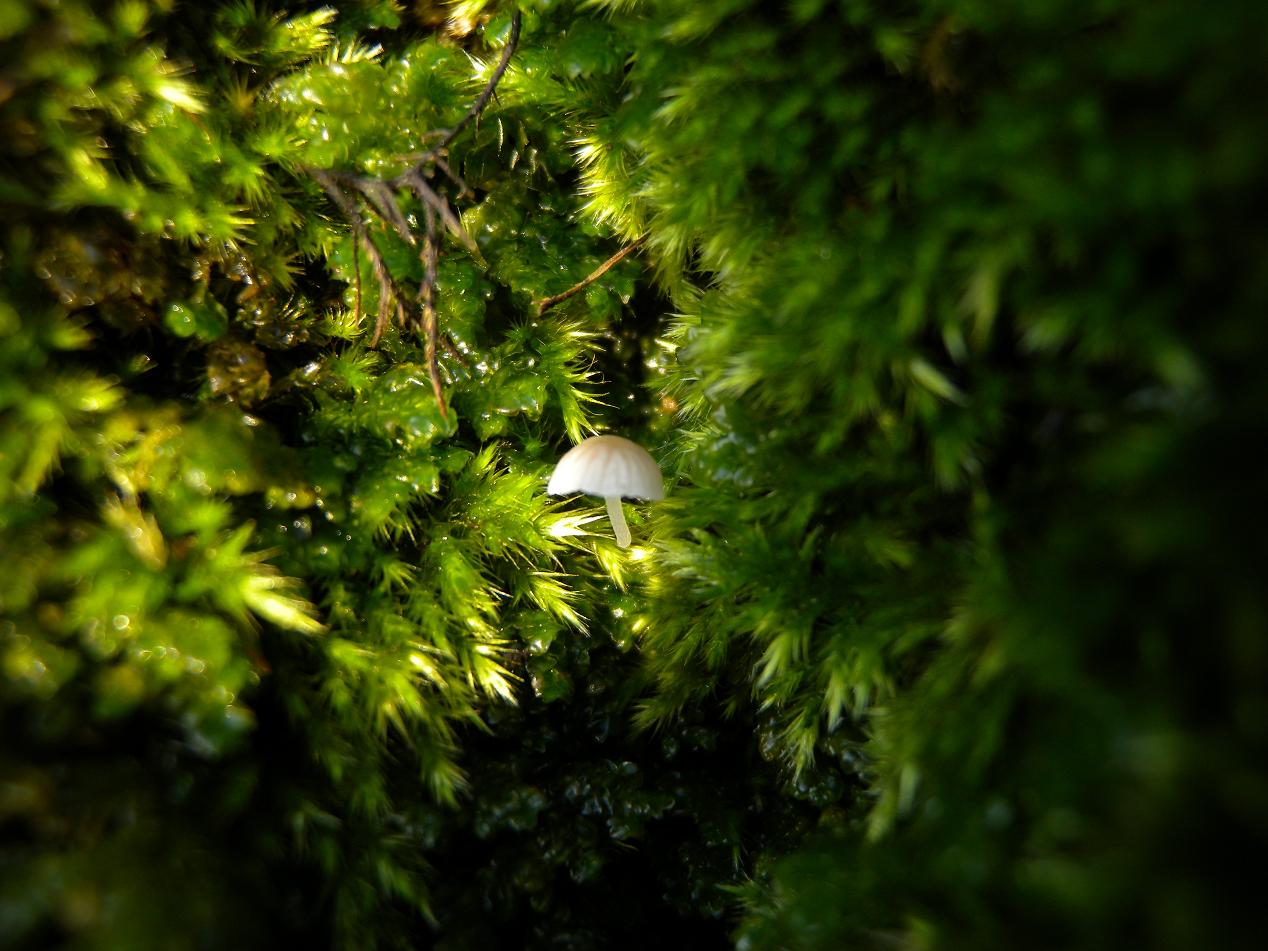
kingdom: Fungi
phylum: Basidiomycota
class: Agaricomycetes
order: Agaricales
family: Porotheleaceae
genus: Phloeomana
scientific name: Phloeomana hiemalis
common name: sen huesvamp
